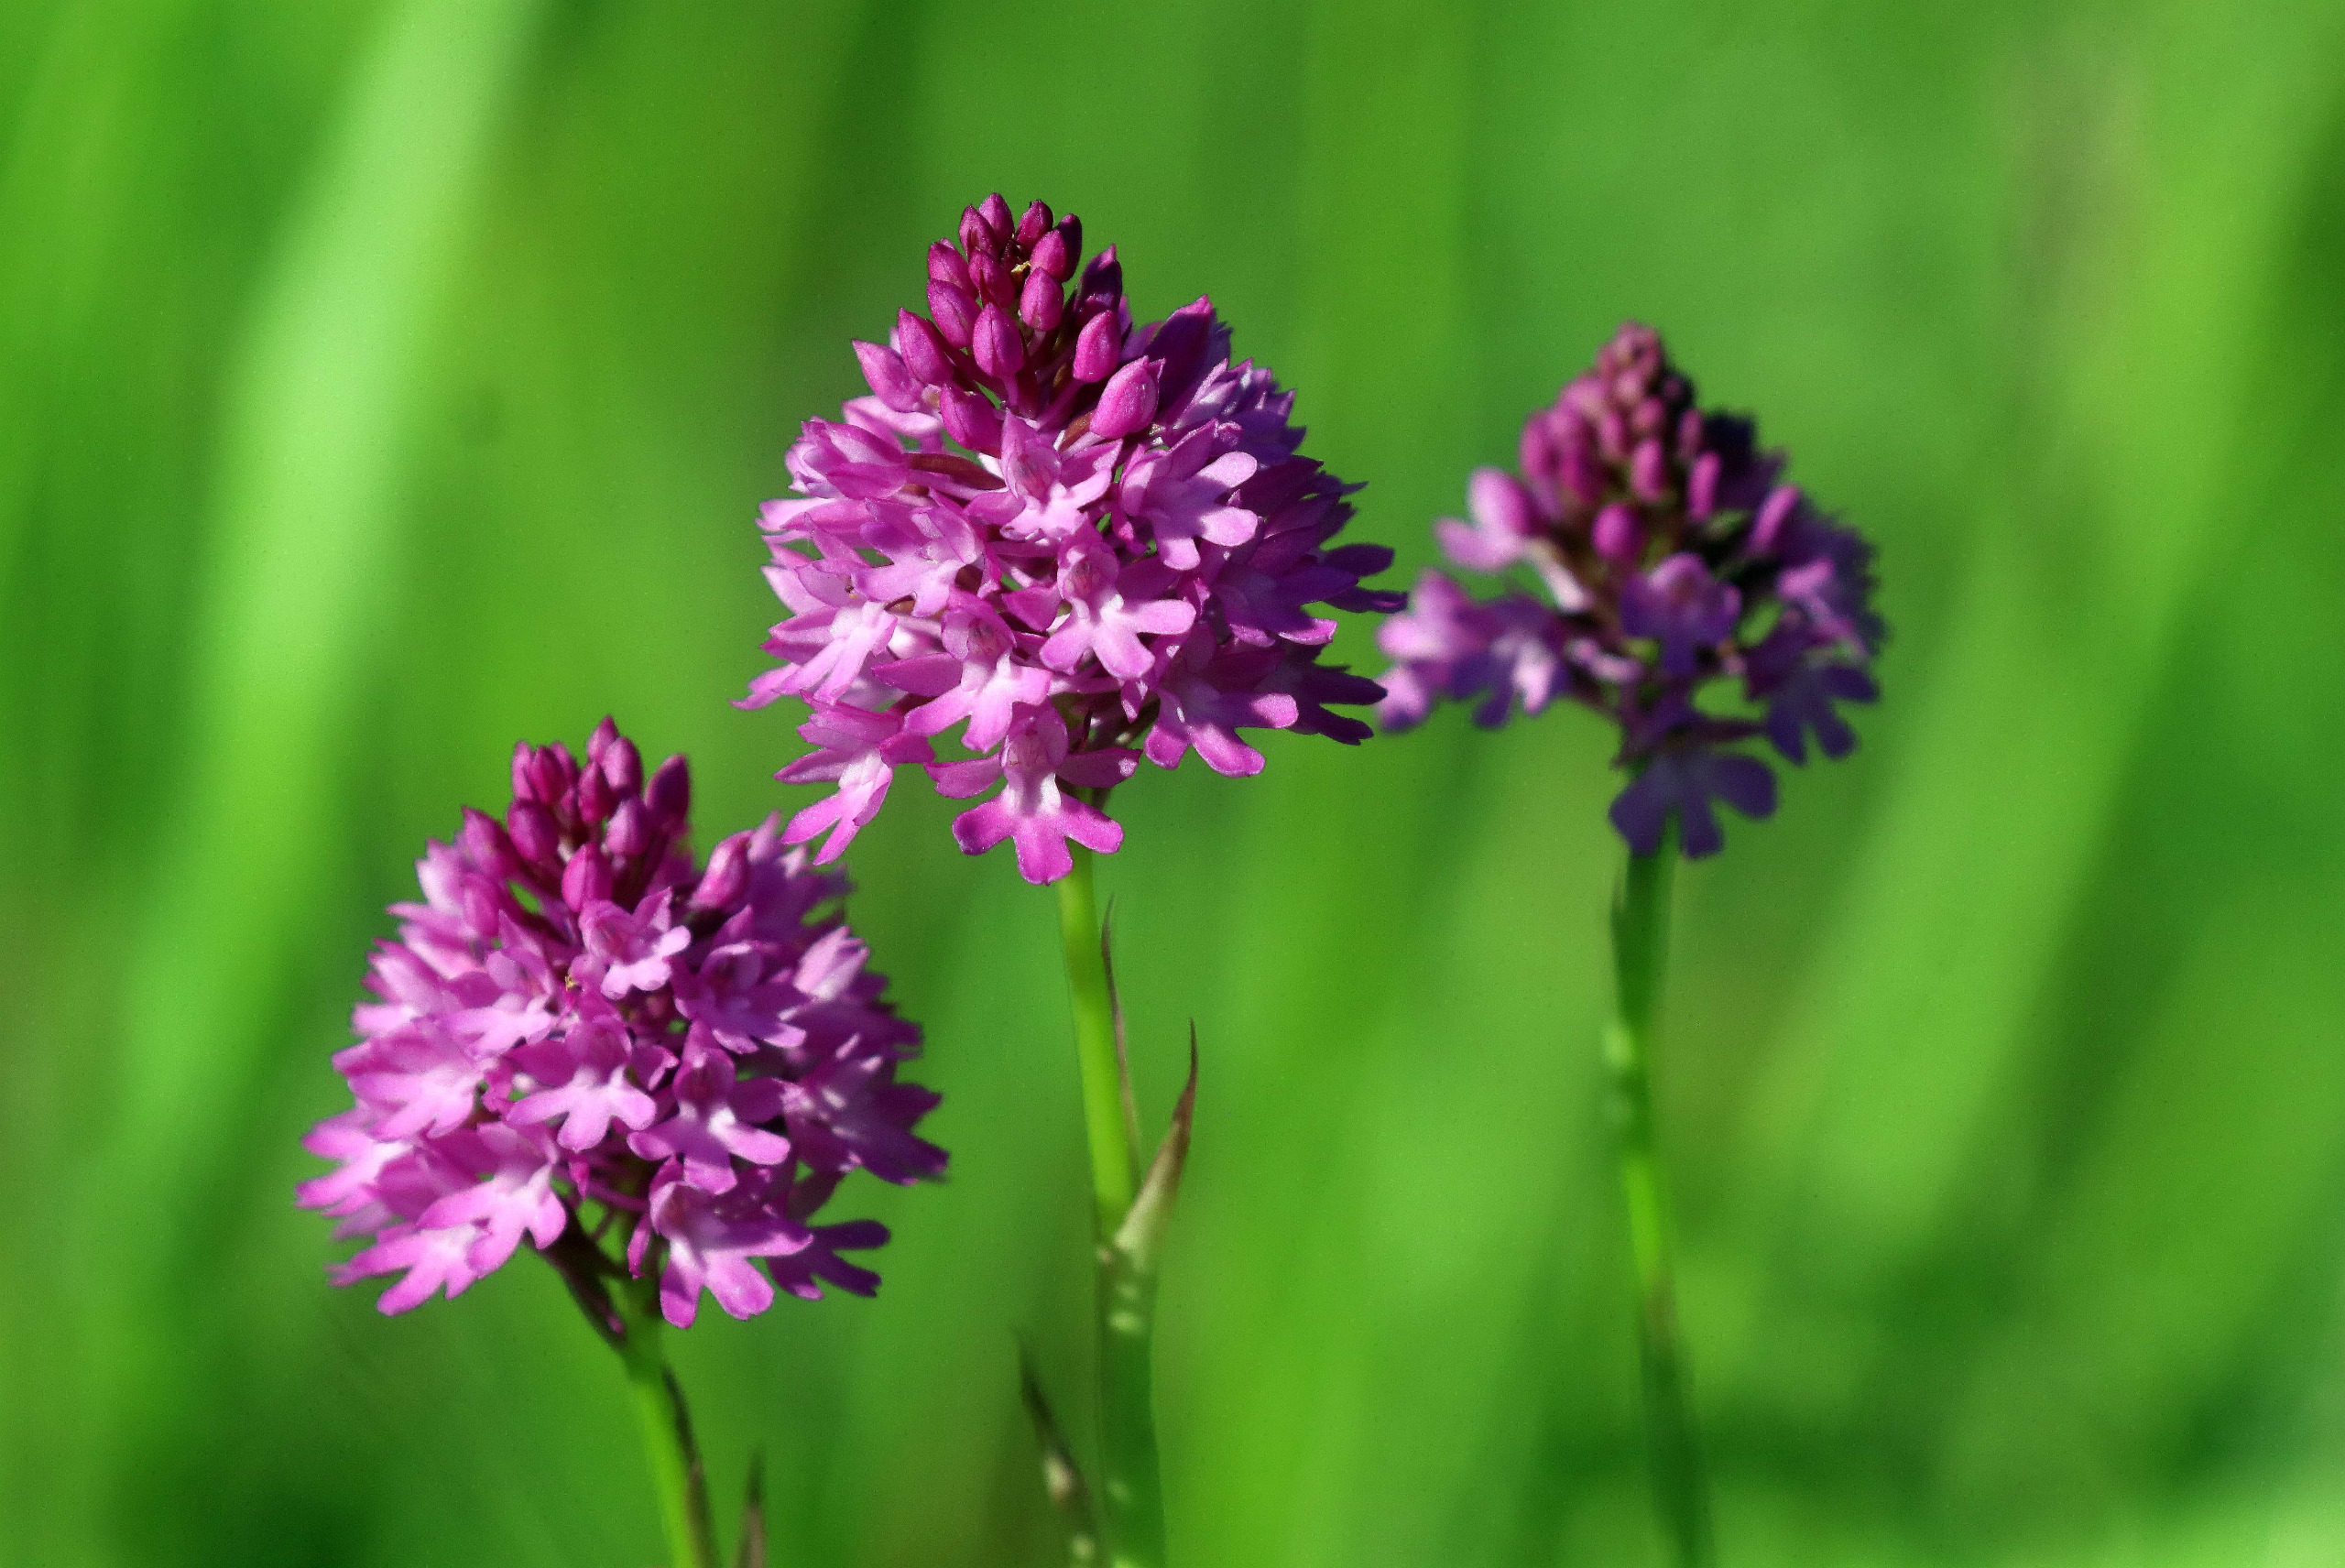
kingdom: Plantae
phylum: Tracheophyta
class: Liliopsida
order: Asparagales
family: Orchidaceae
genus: Anacamptis
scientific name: Anacamptis pyramidalis
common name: Horndrager
